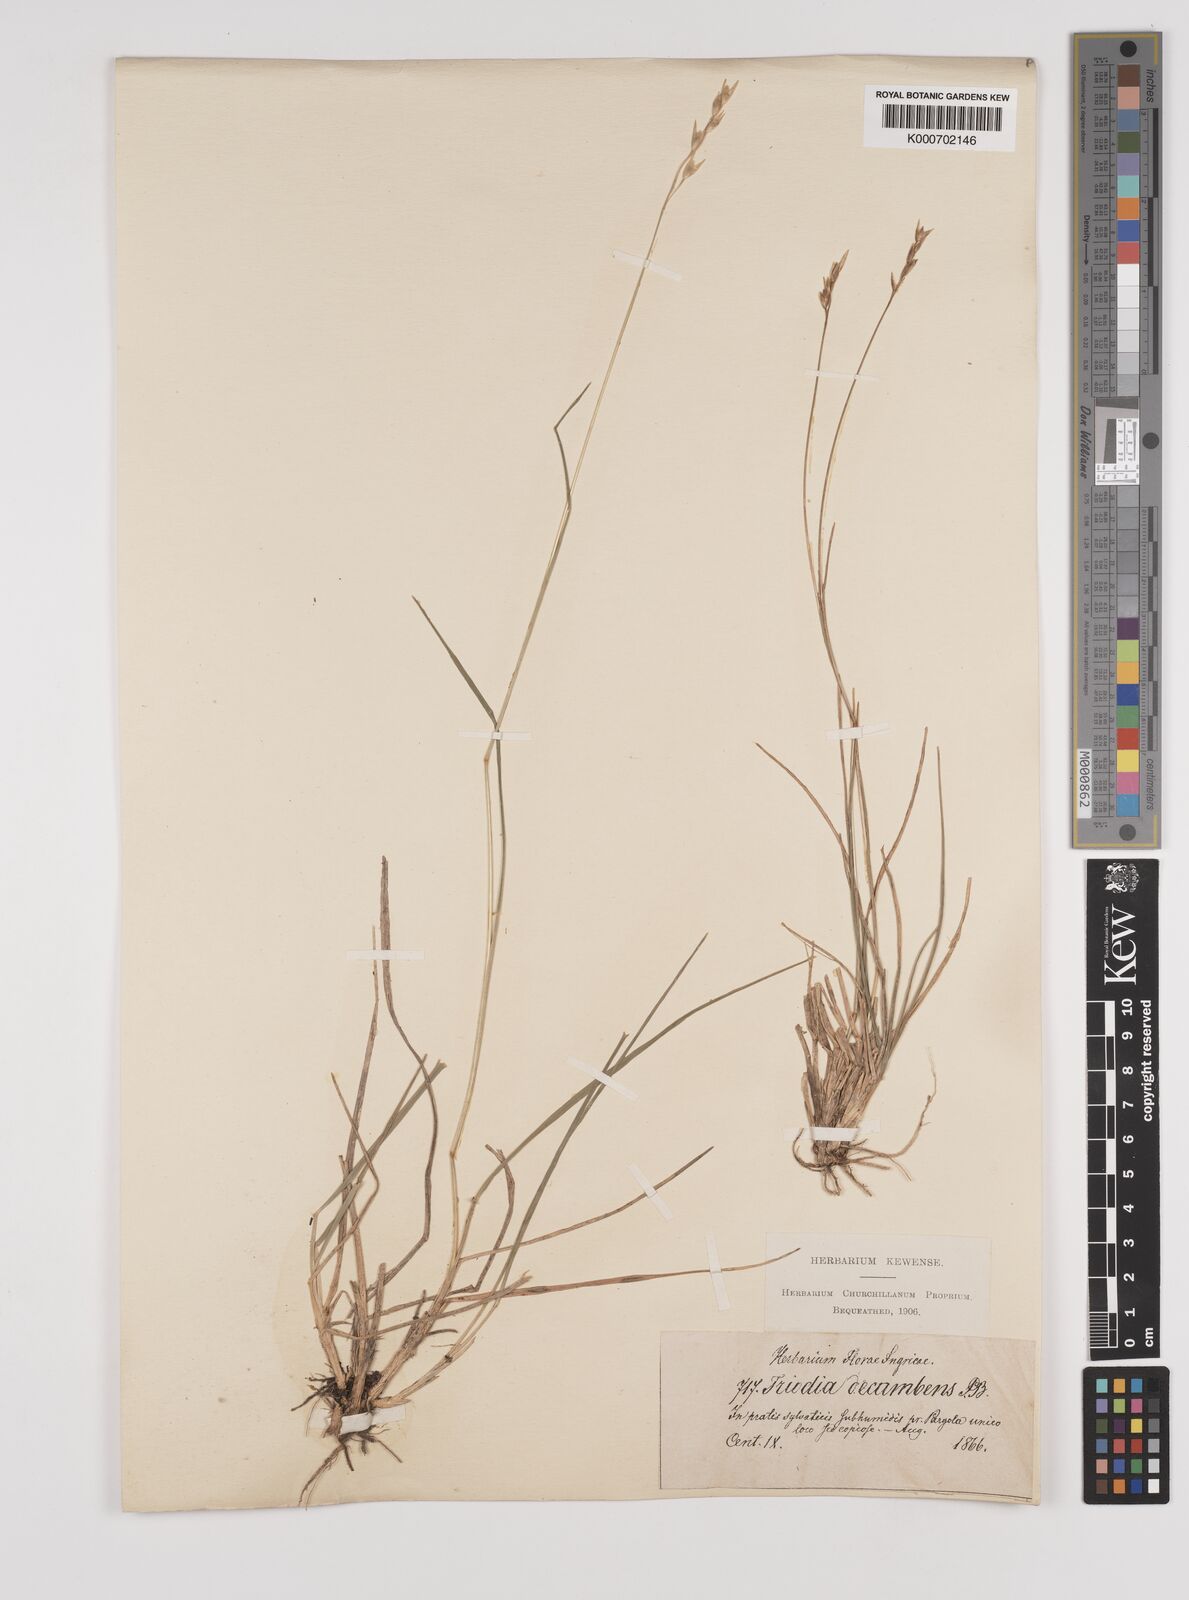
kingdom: Plantae
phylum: Tracheophyta
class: Liliopsida
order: Poales
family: Poaceae
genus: Danthonia
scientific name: Danthonia decumbens
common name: Common heathgrass
